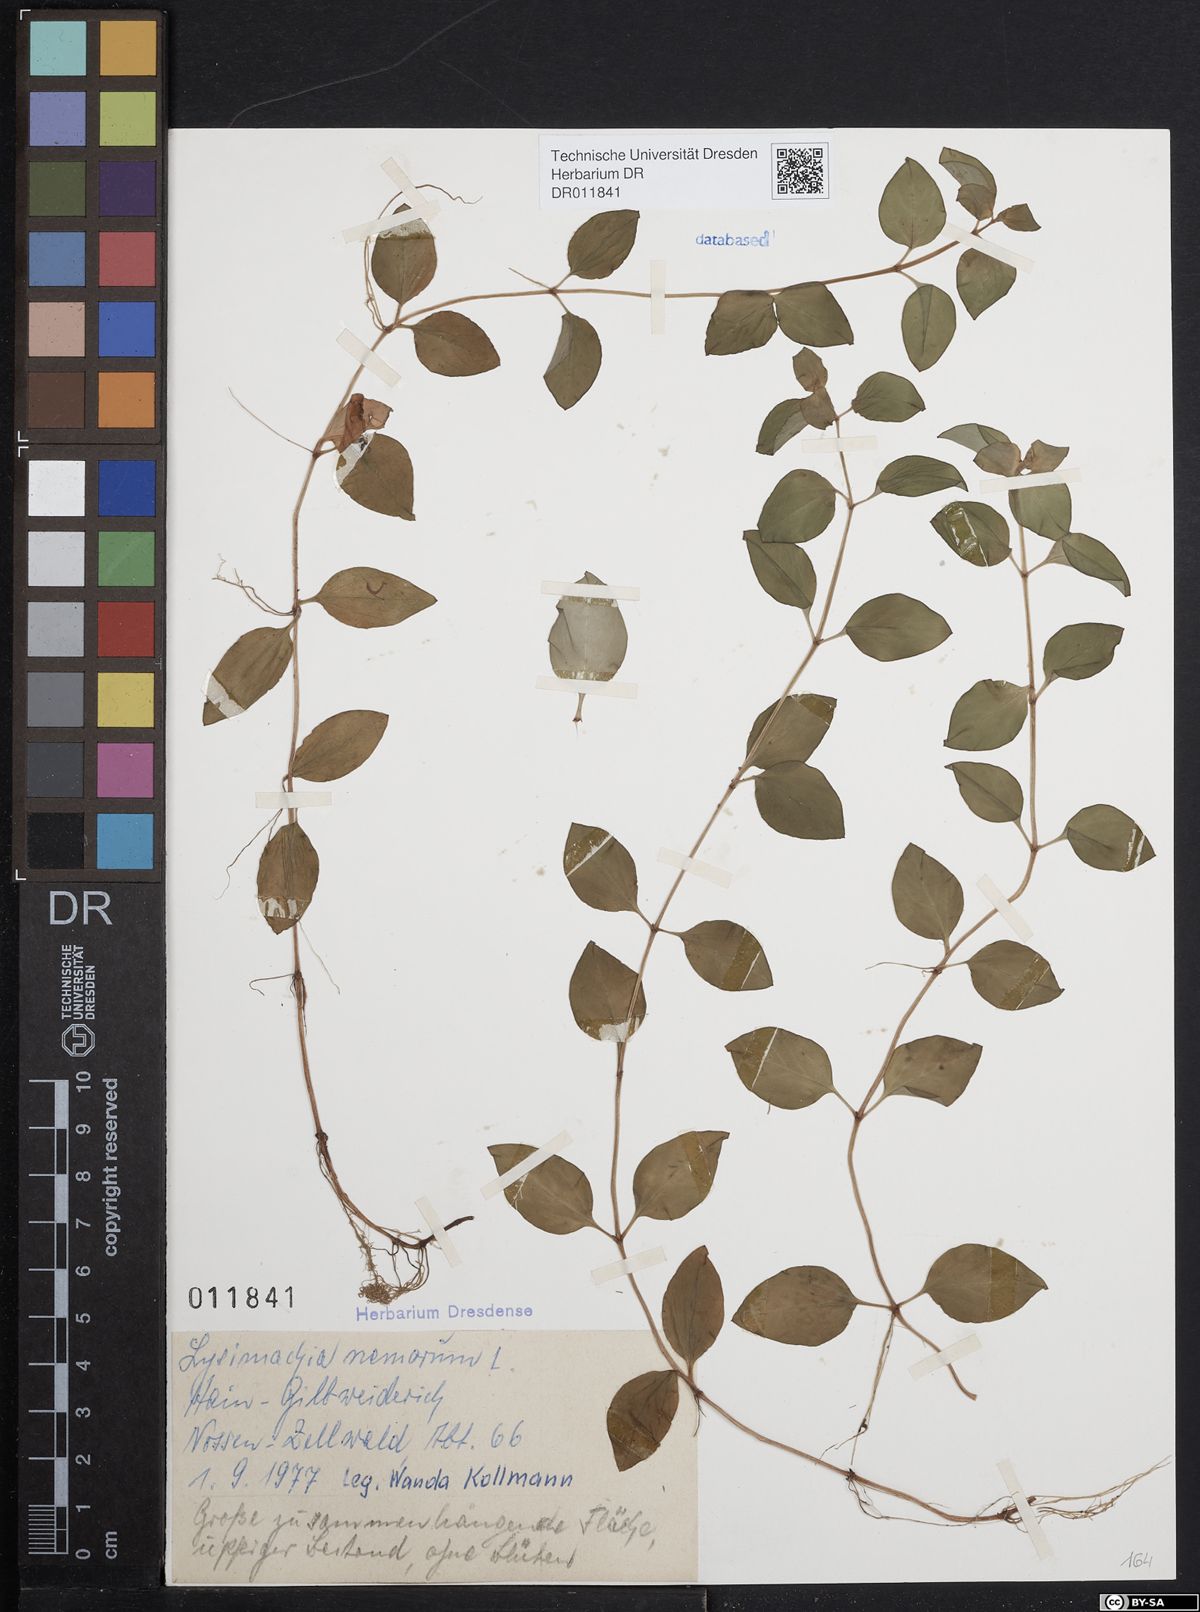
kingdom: Plantae
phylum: Tracheophyta
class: Magnoliopsida
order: Ericales
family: Primulaceae
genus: Lysimachia
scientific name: Lysimachia nemorum
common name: Yellow pimpernel
